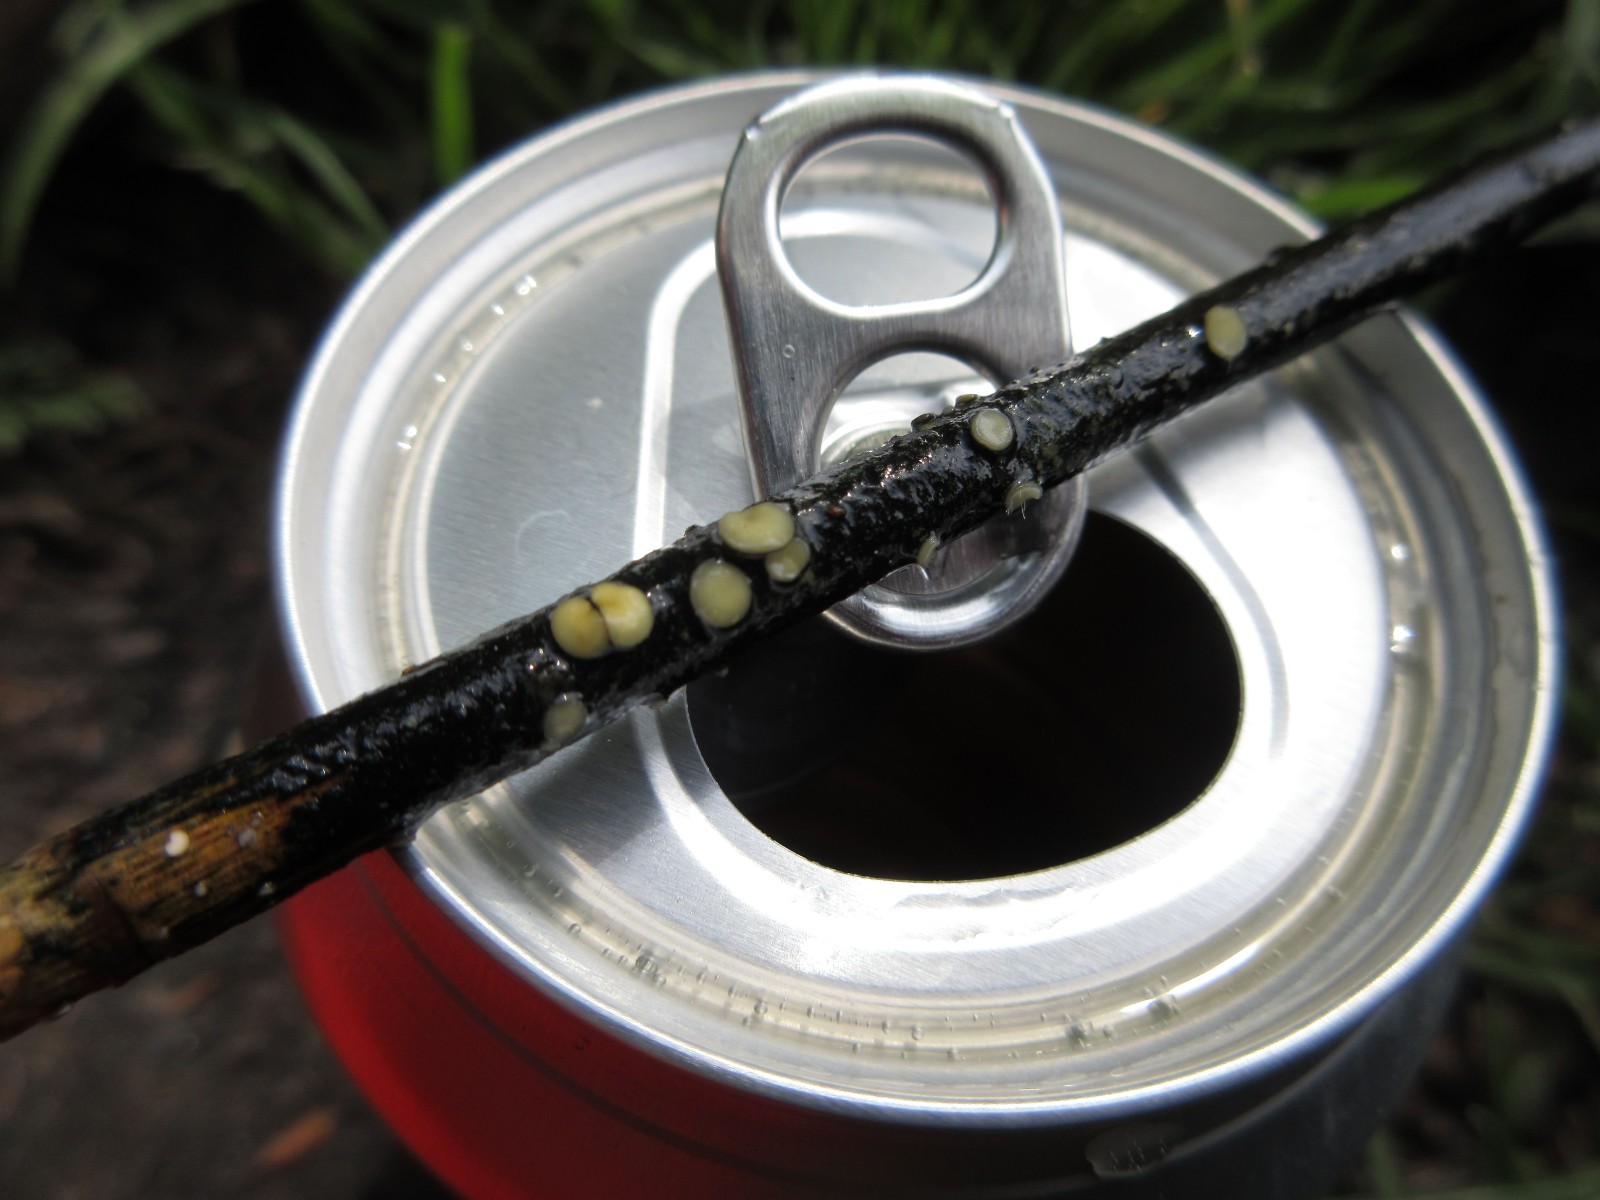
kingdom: Fungi
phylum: Ascomycota
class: Leotiomycetes
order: Helotiales
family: Mollisiaceae
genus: Trichobelonium
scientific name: Trichobelonium kneiffii
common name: tagrør-gråskive
